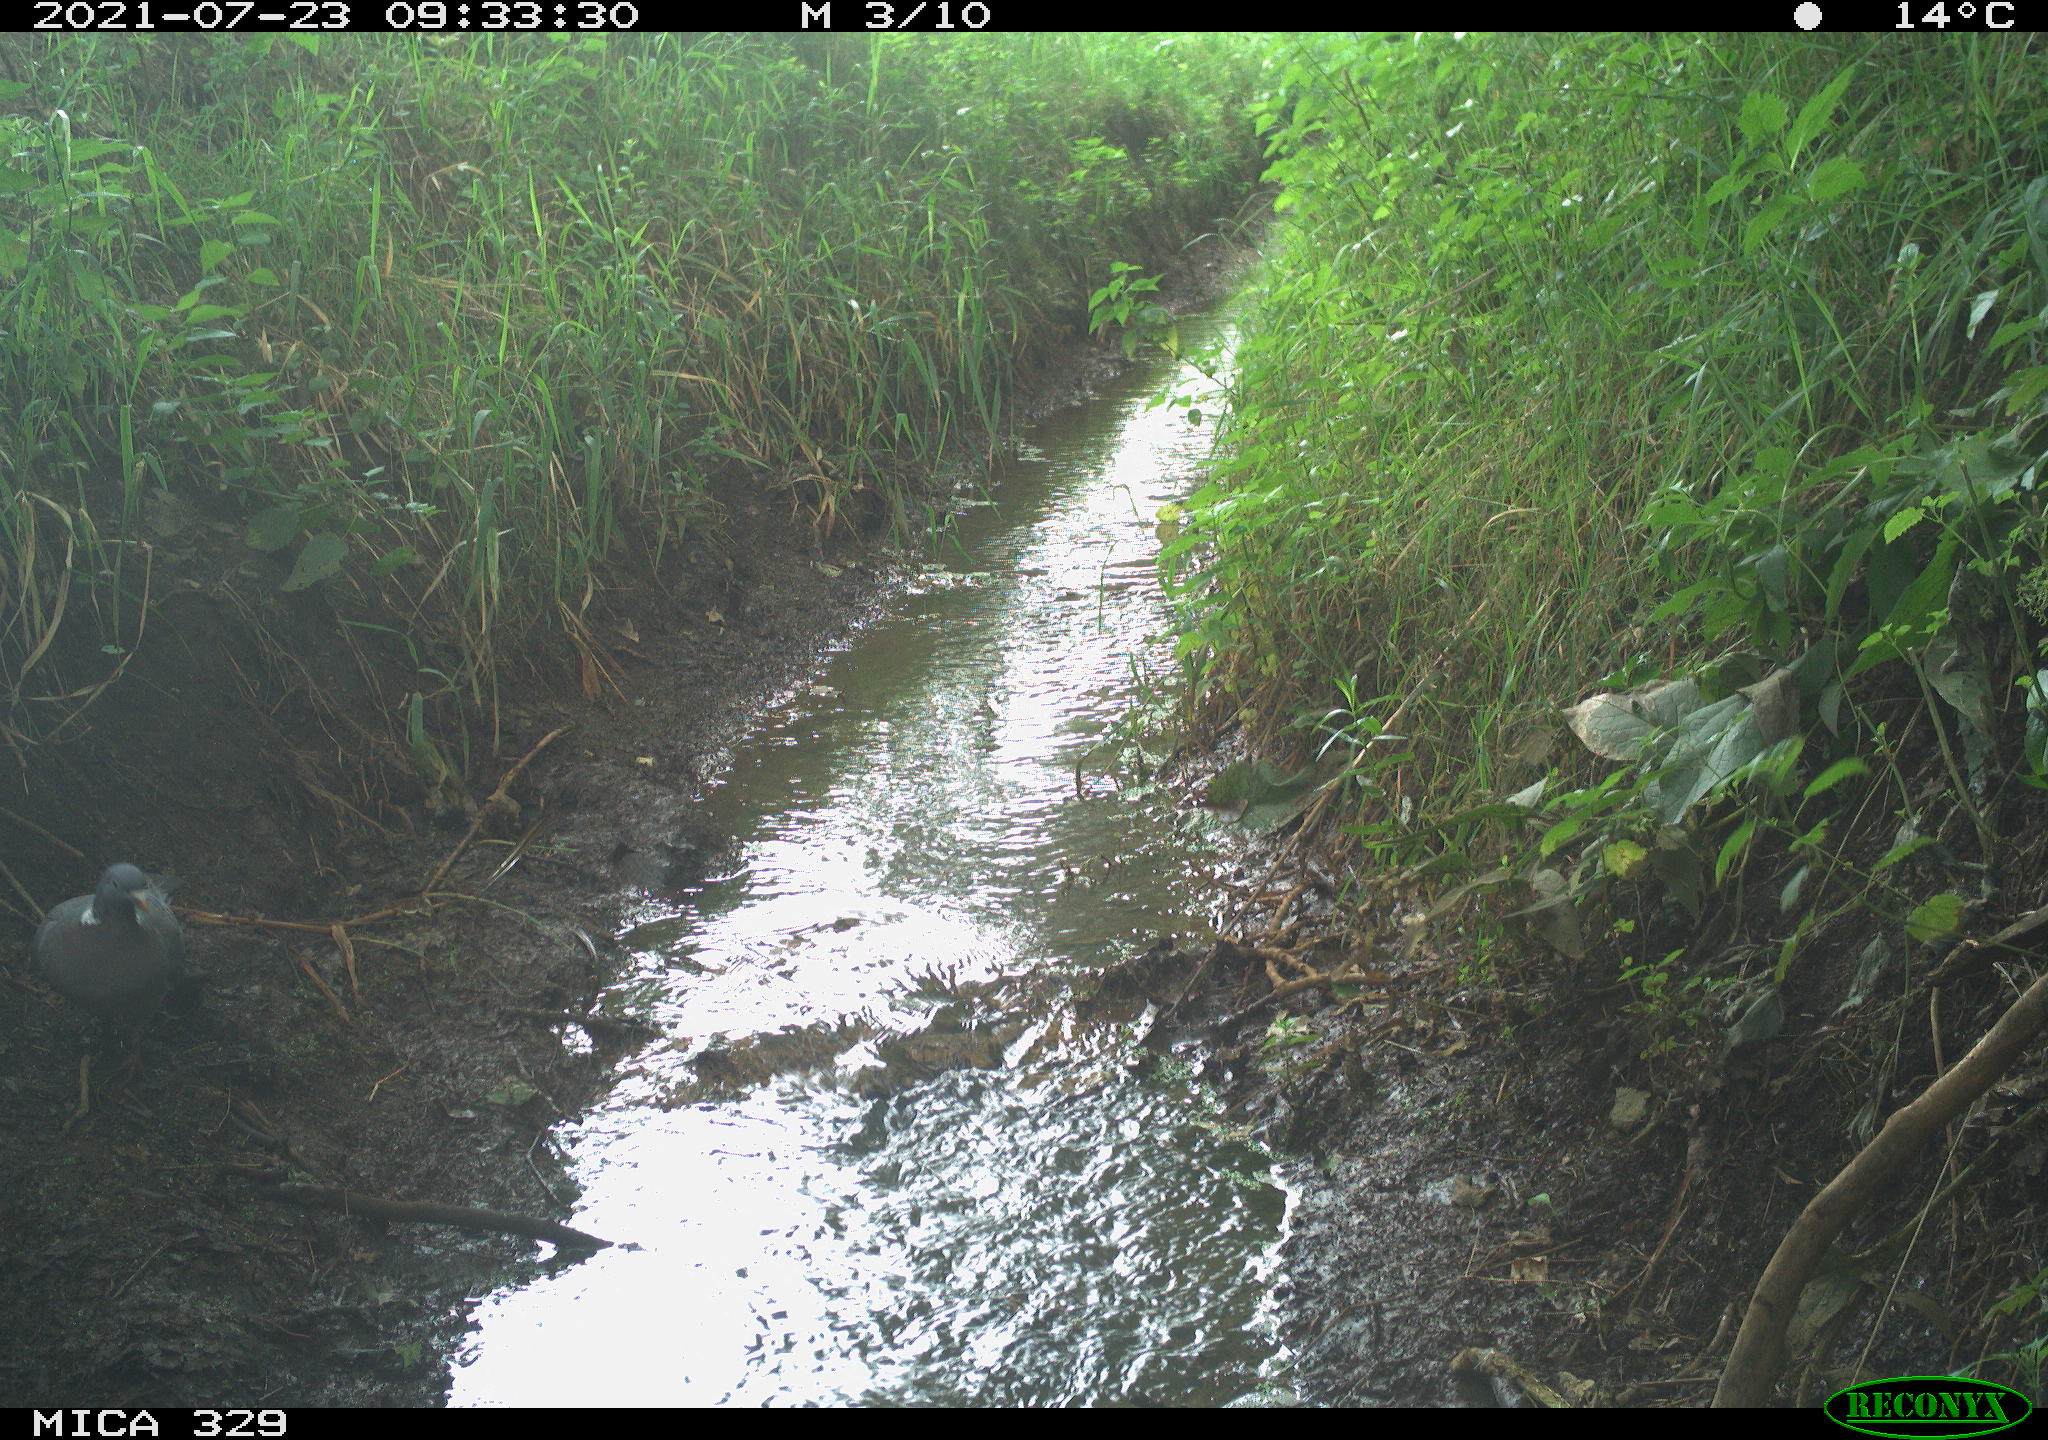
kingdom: Animalia
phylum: Chordata
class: Aves
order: Columbiformes
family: Columbidae
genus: Columba
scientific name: Columba palumbus
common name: Common wood pigeon
